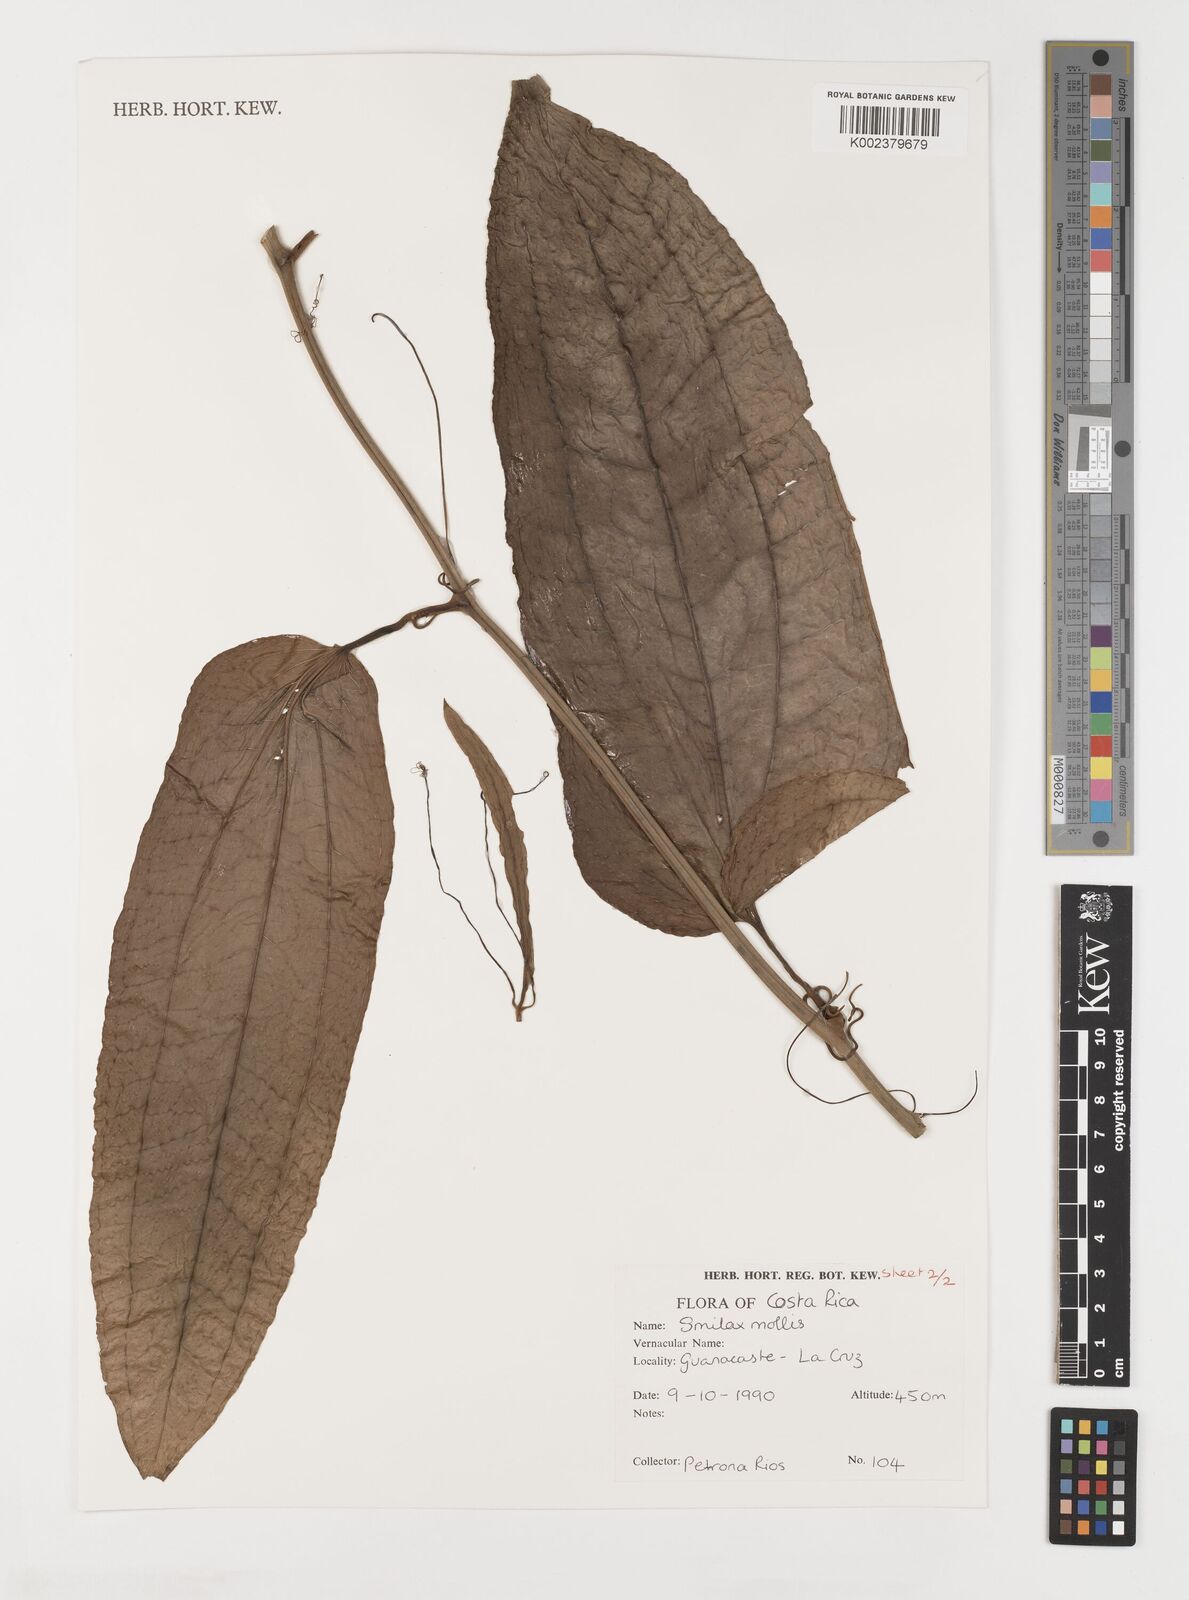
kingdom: Plantae
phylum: Tracheophyta
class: Liliopsida
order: Liliales
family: Smilacaceae
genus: Smilax
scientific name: Smilax mollis
